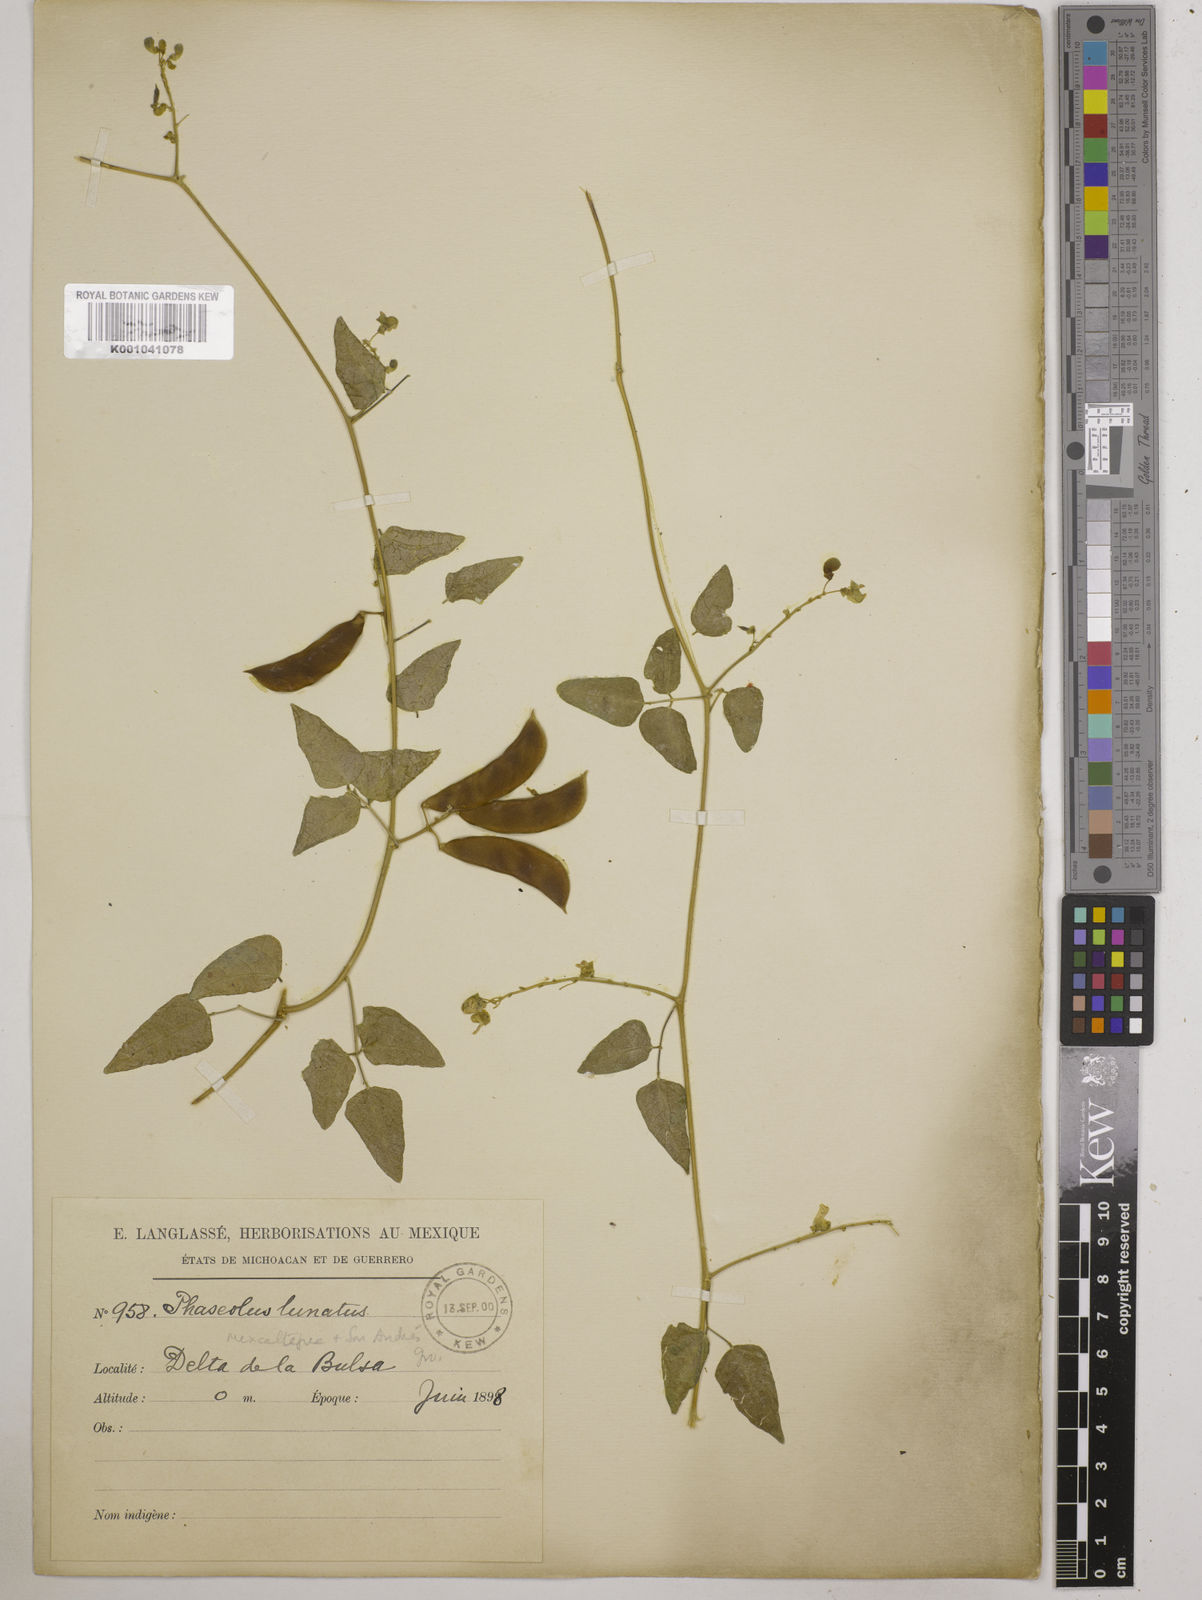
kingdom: Plantae
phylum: Tracheophyta
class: Magnoliopsida
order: Fabales
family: Fabaceae
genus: Phaseolus
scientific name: Phaseolus lunatus
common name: Sieva bean
